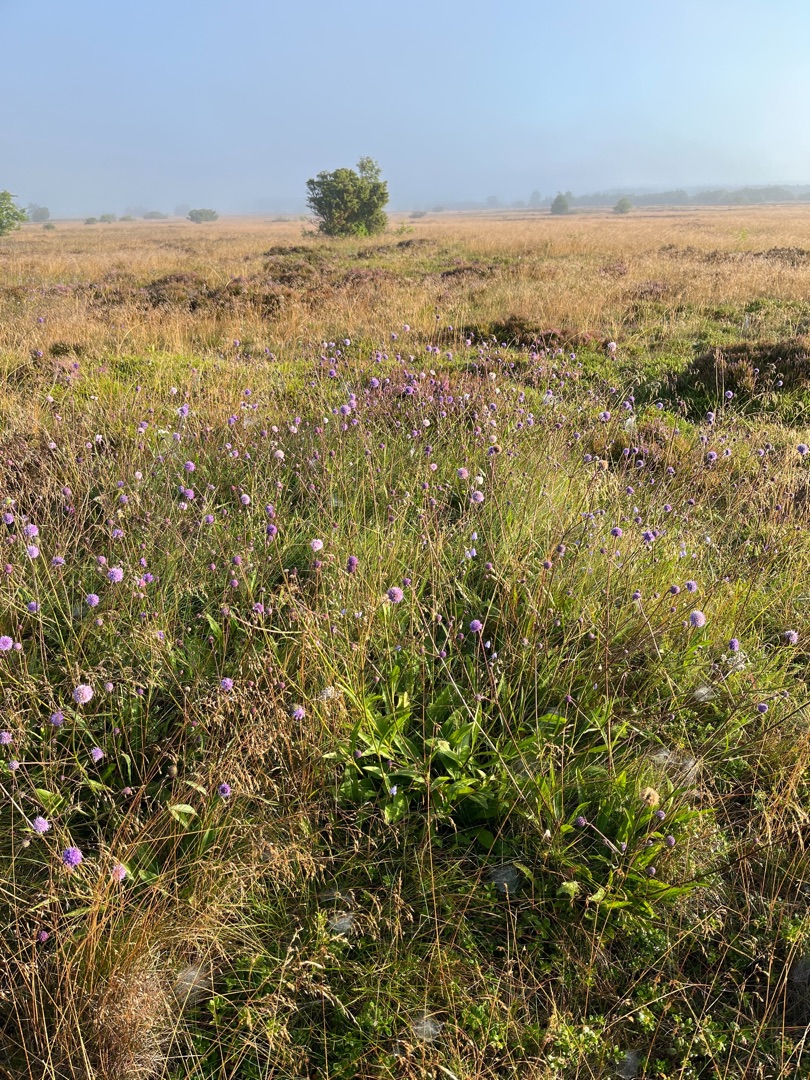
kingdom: Plantae
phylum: Tracheophyta
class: Magnoliopsida
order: Dipsacales
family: Caprifoliaceae
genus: Succisa
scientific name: Succisa pratensis
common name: Djævelsbid
